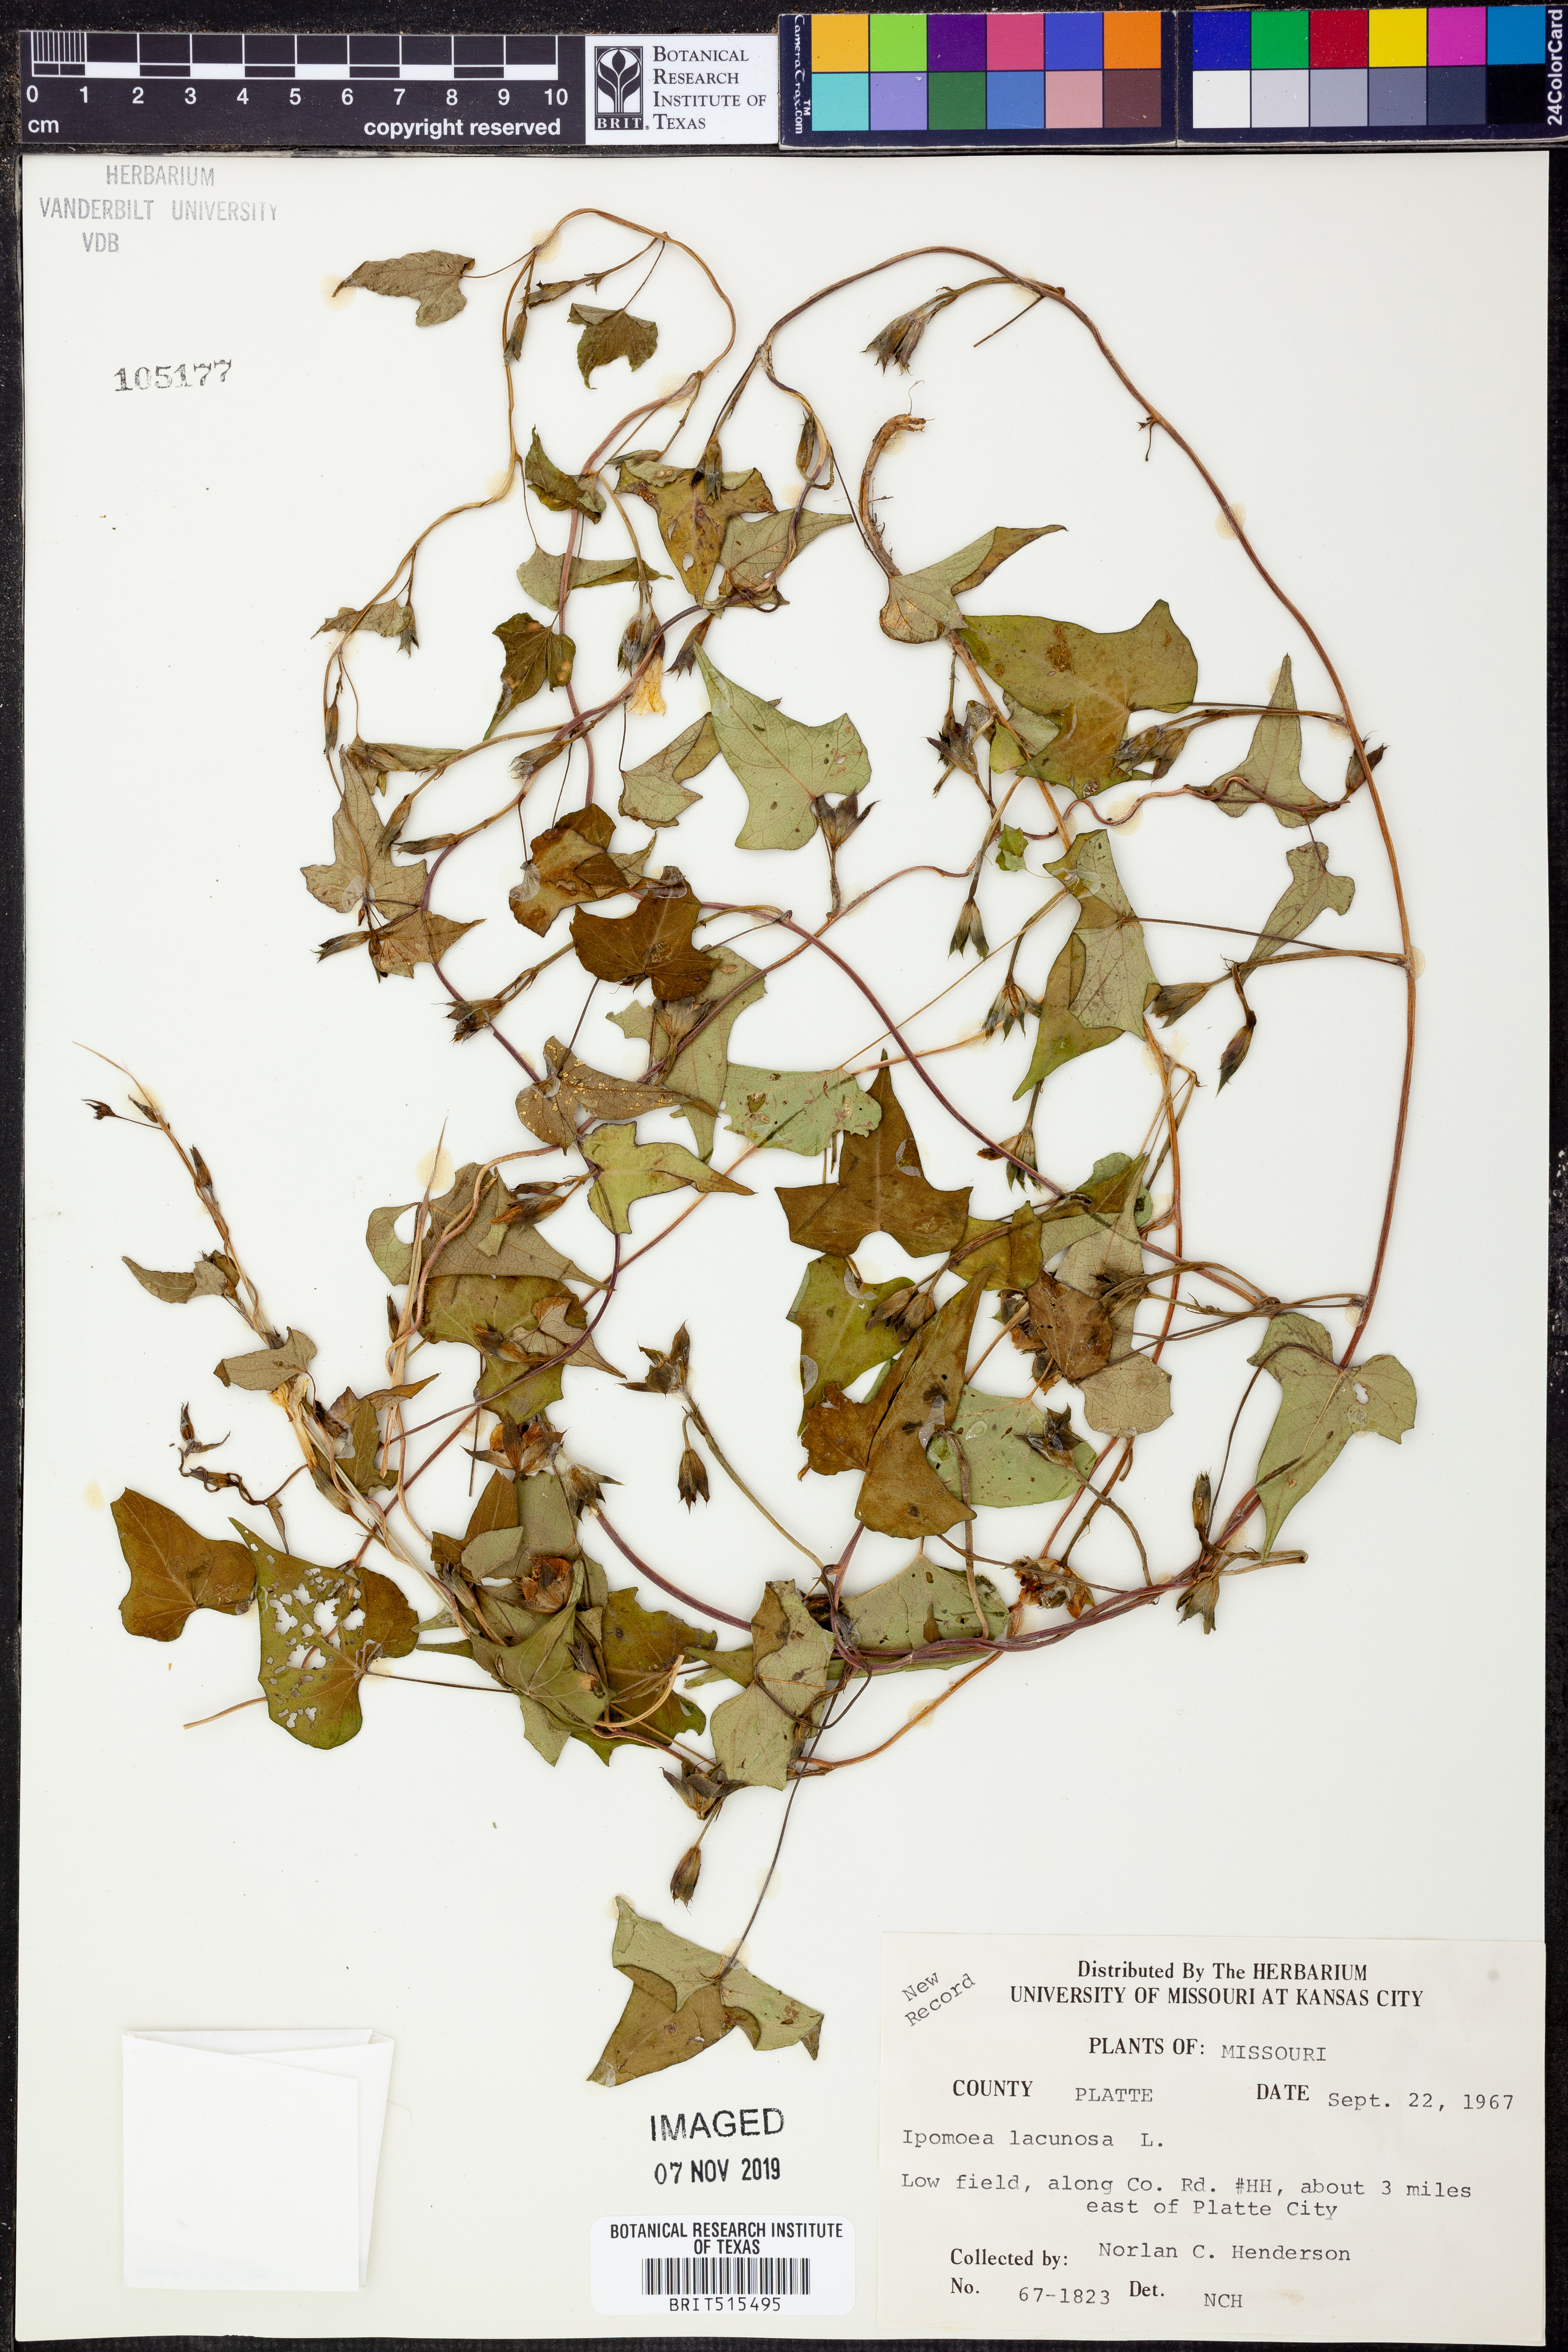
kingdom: Plantae
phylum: Tracheophyta
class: Magnoliopsida
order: Solanales
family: Convolvulaceae
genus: Ipomoea
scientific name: Ipomoea lacunosa
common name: White morning-glory
